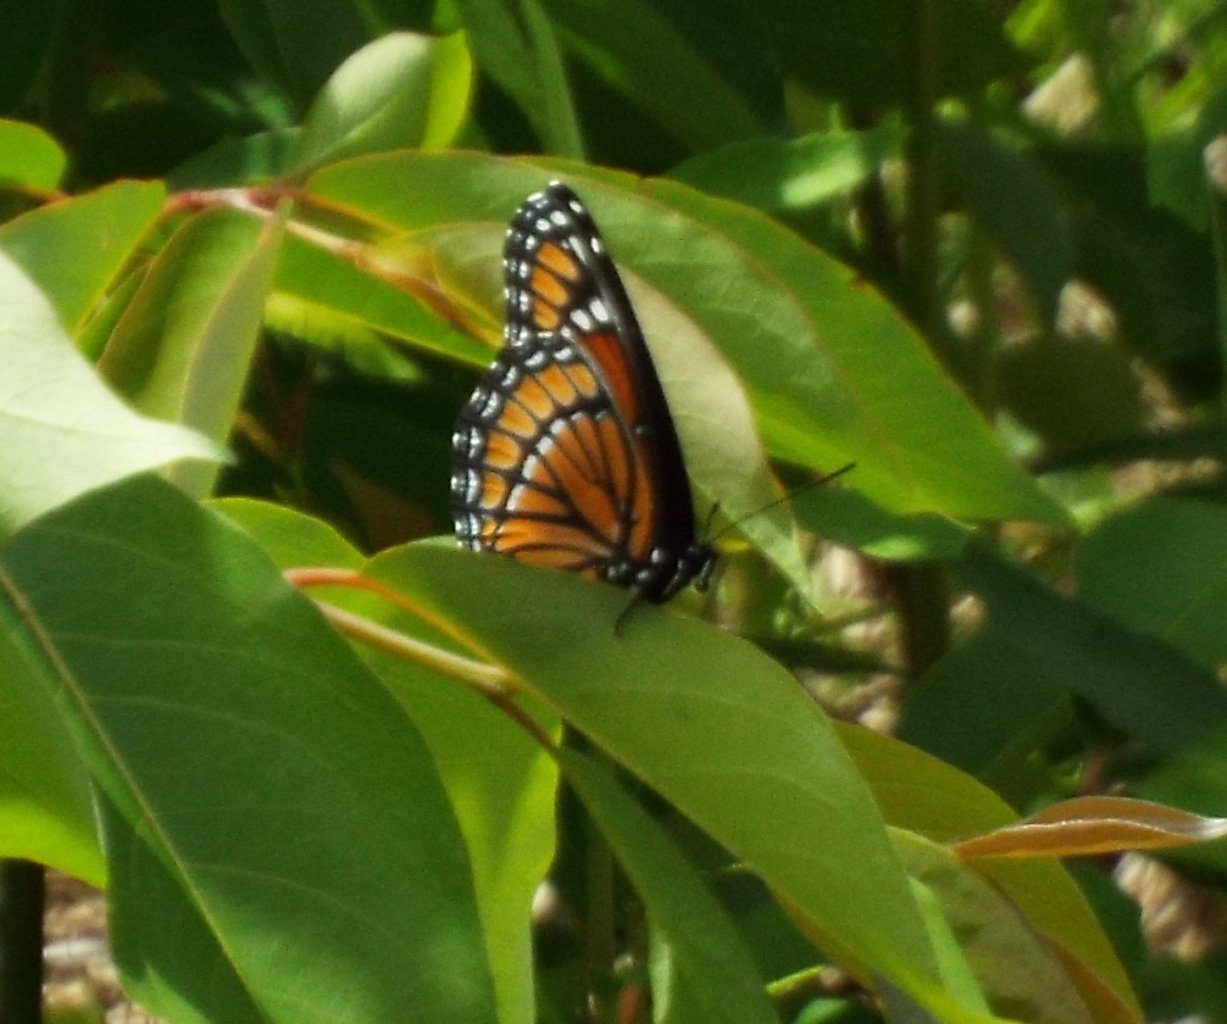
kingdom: Animalia
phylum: Arthropoda
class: Insecta
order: Lepidoptera
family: Nymphalidae
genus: Limenitis
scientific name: Limenitis archippus
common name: Viceroy
